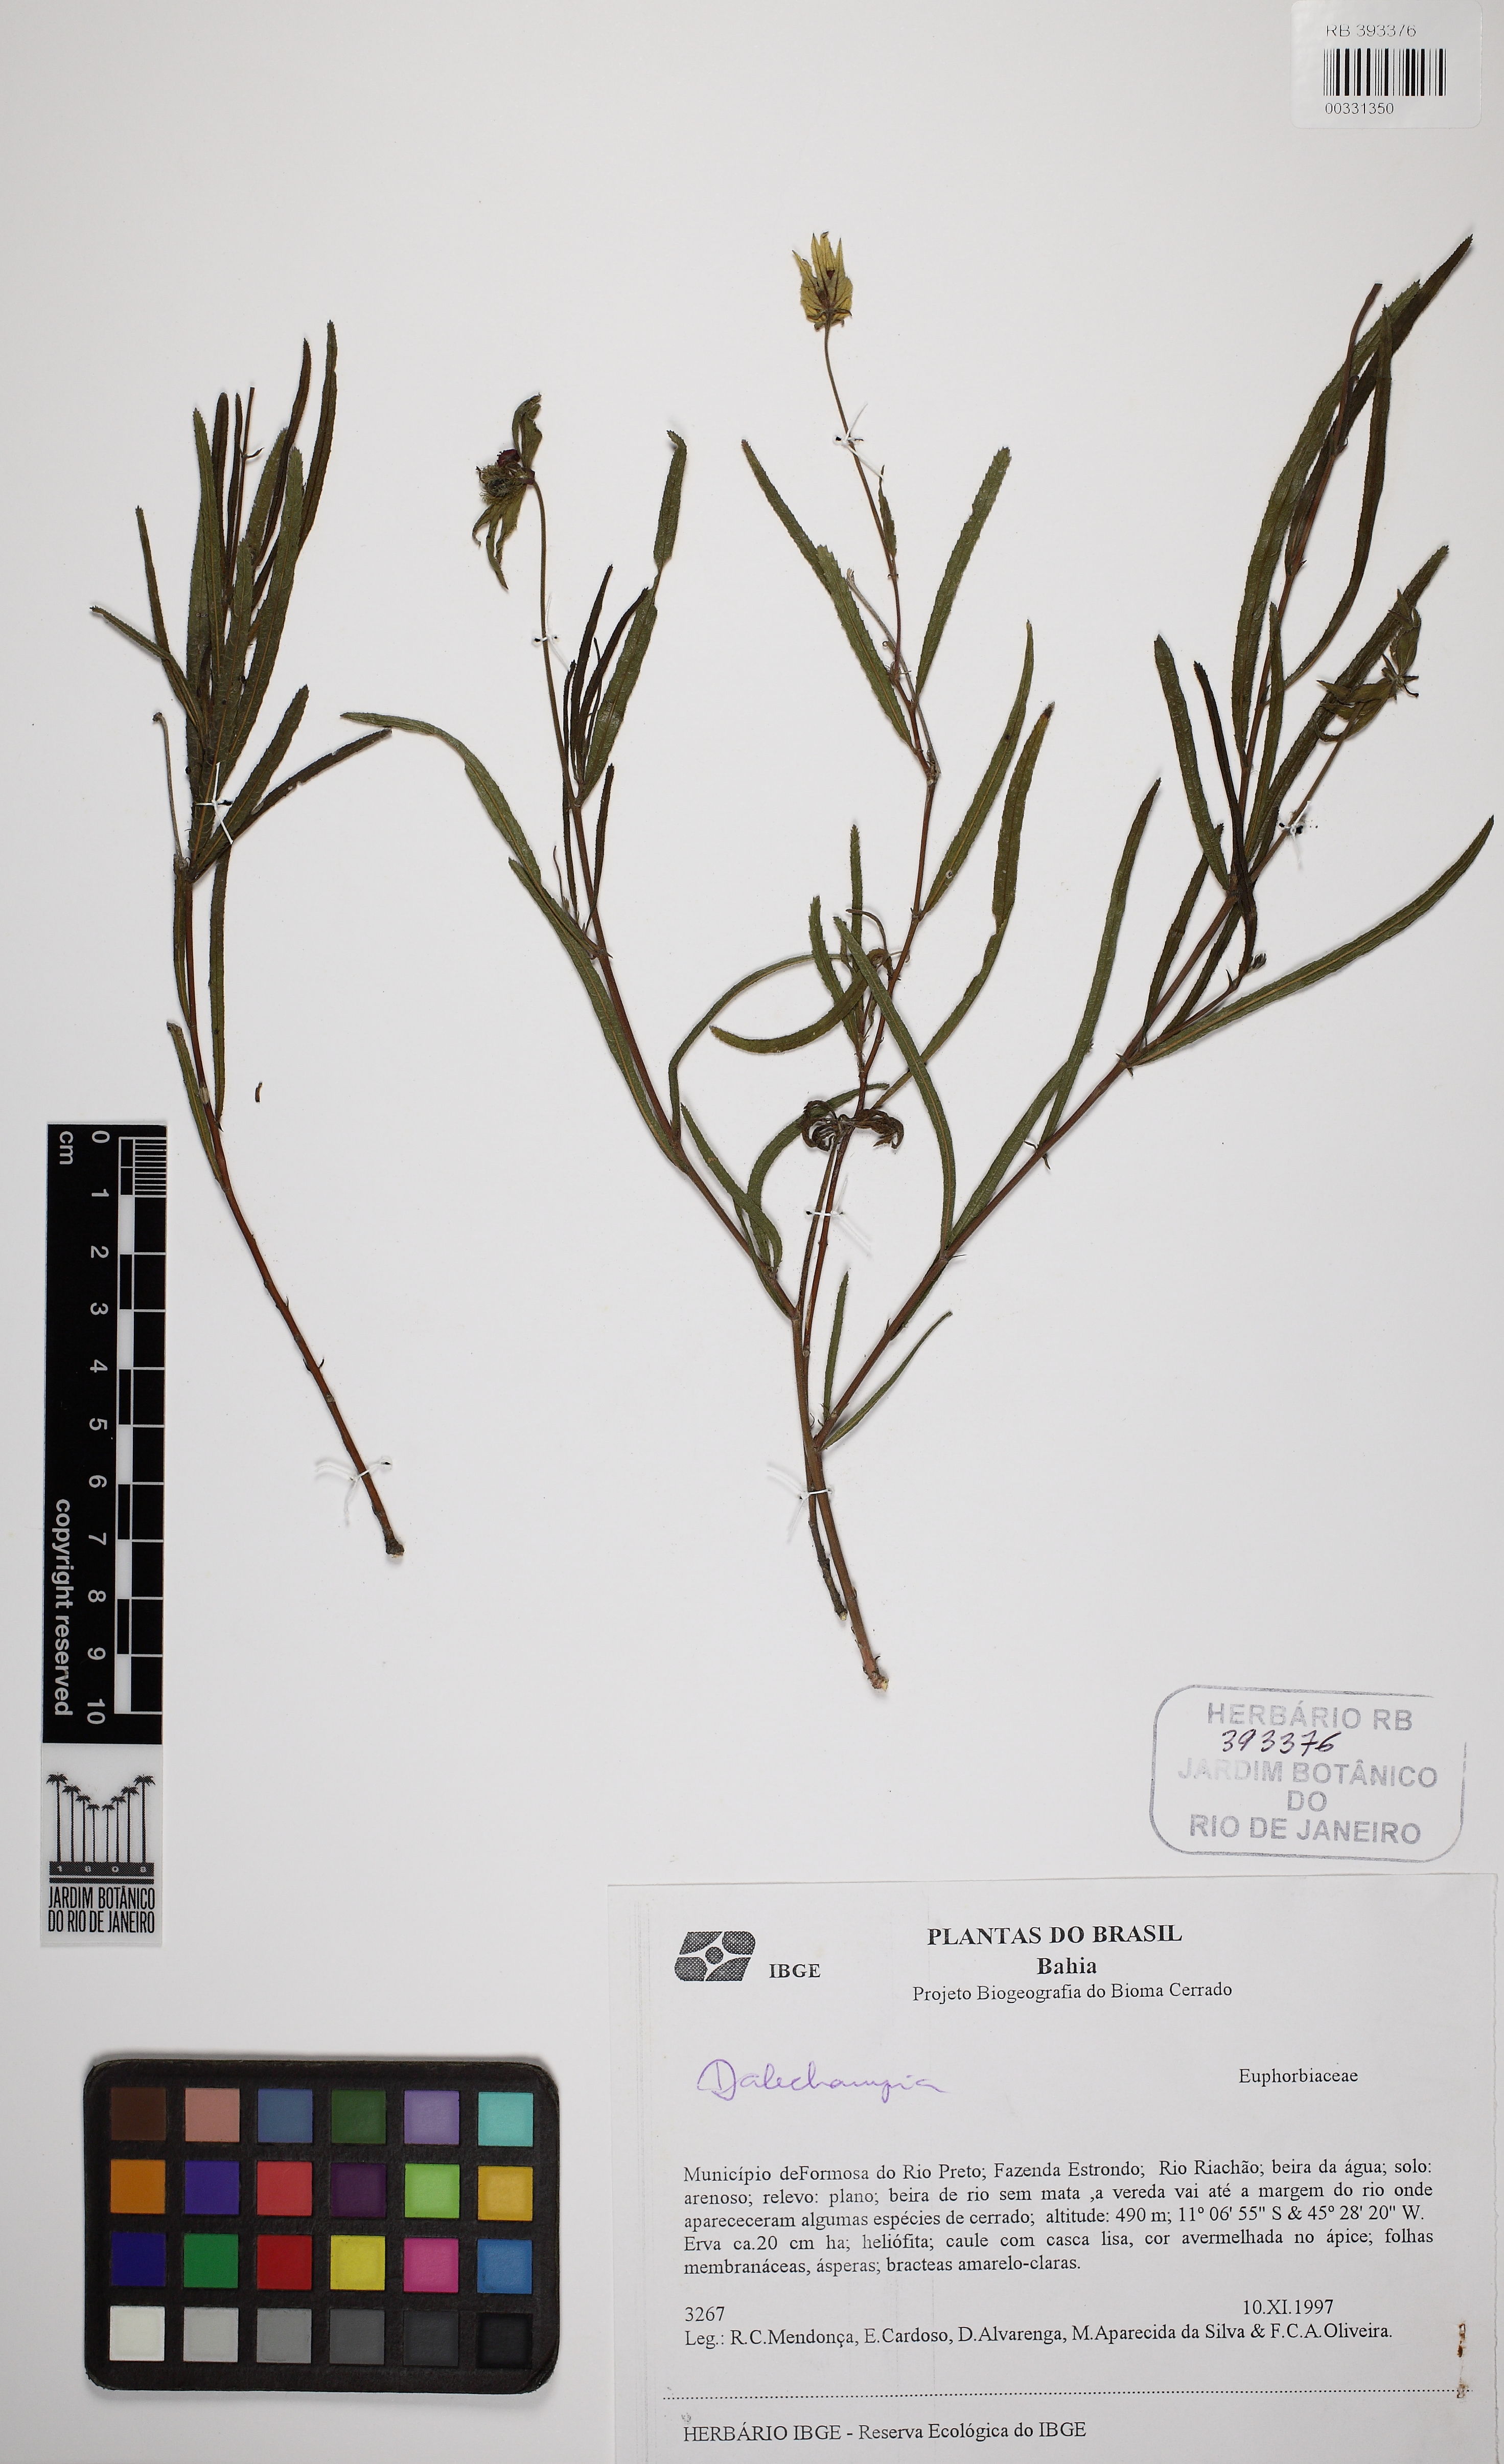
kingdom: Plantae
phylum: Tracheophyta
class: Magnoliopsida
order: Malpighiales
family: Euphorbiaceae
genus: Dalechampia
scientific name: Dalechampia linearis
